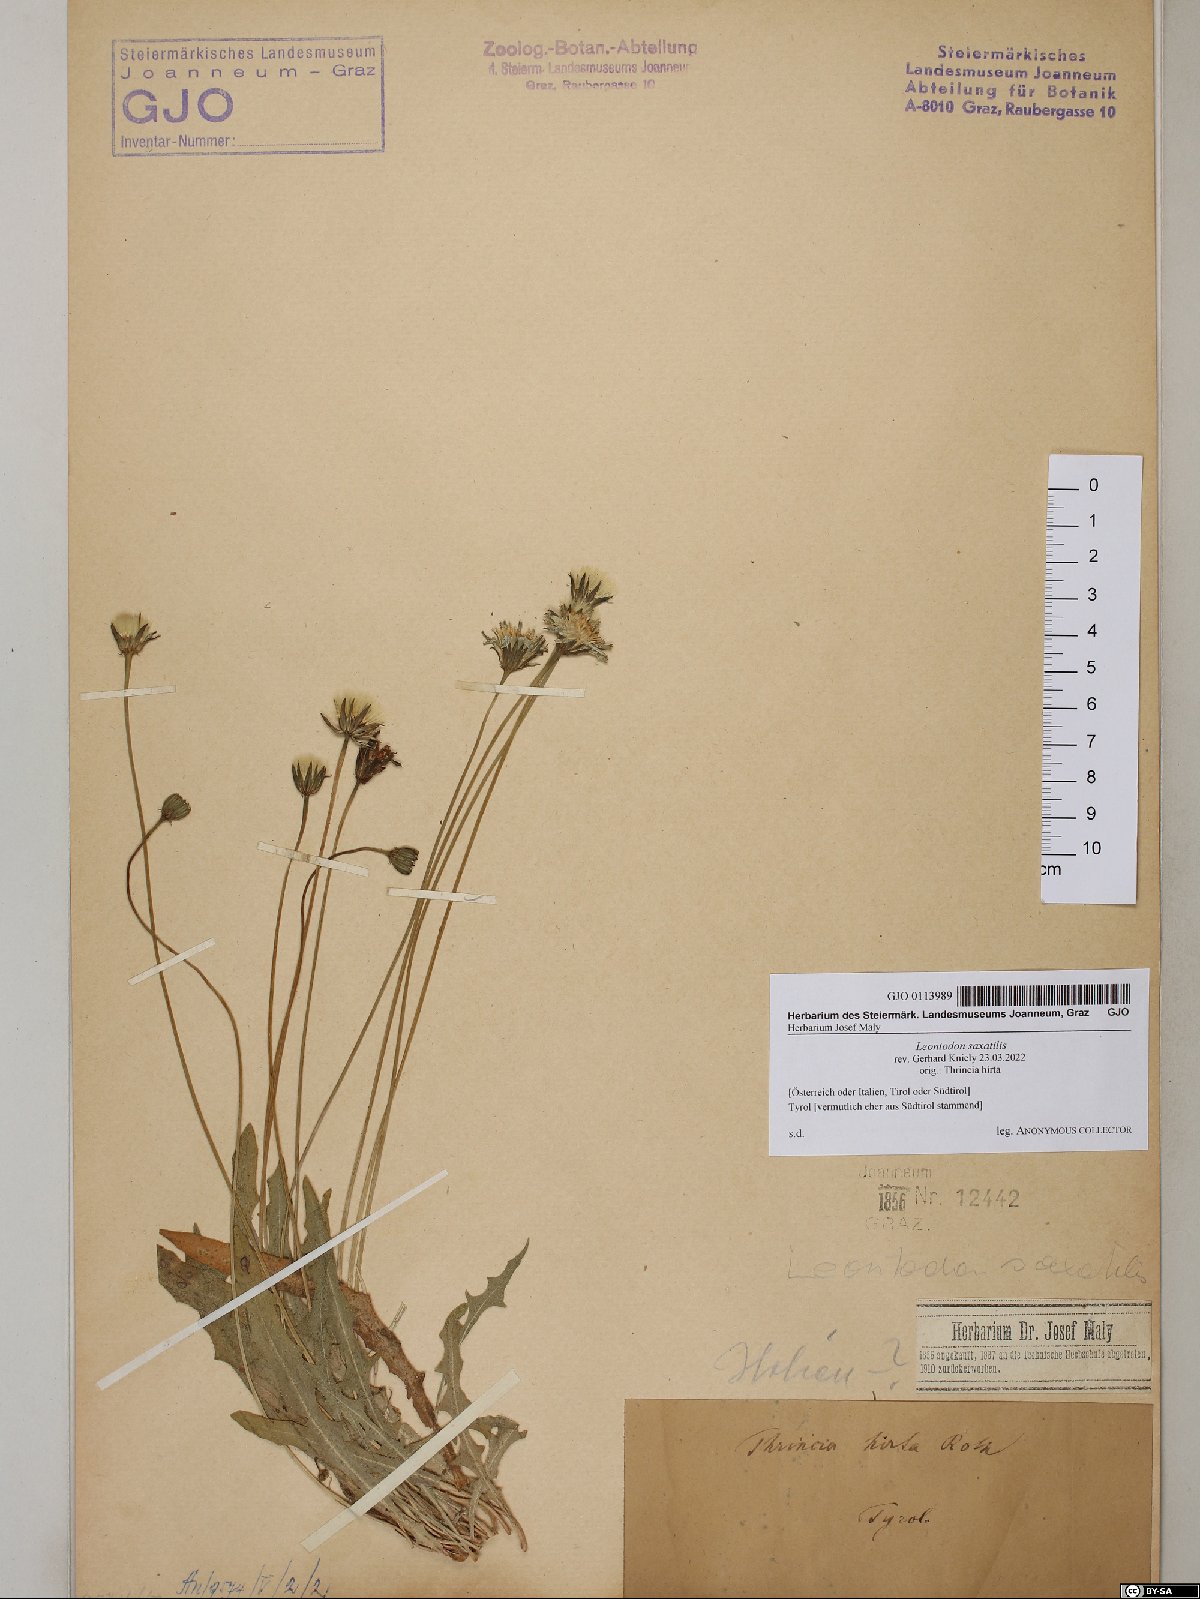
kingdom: Plantae
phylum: Tracheophyta
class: Magnoliopsida
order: Asterales
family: Asteraceae
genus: Thrincia
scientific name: Thrincia saxatilis
